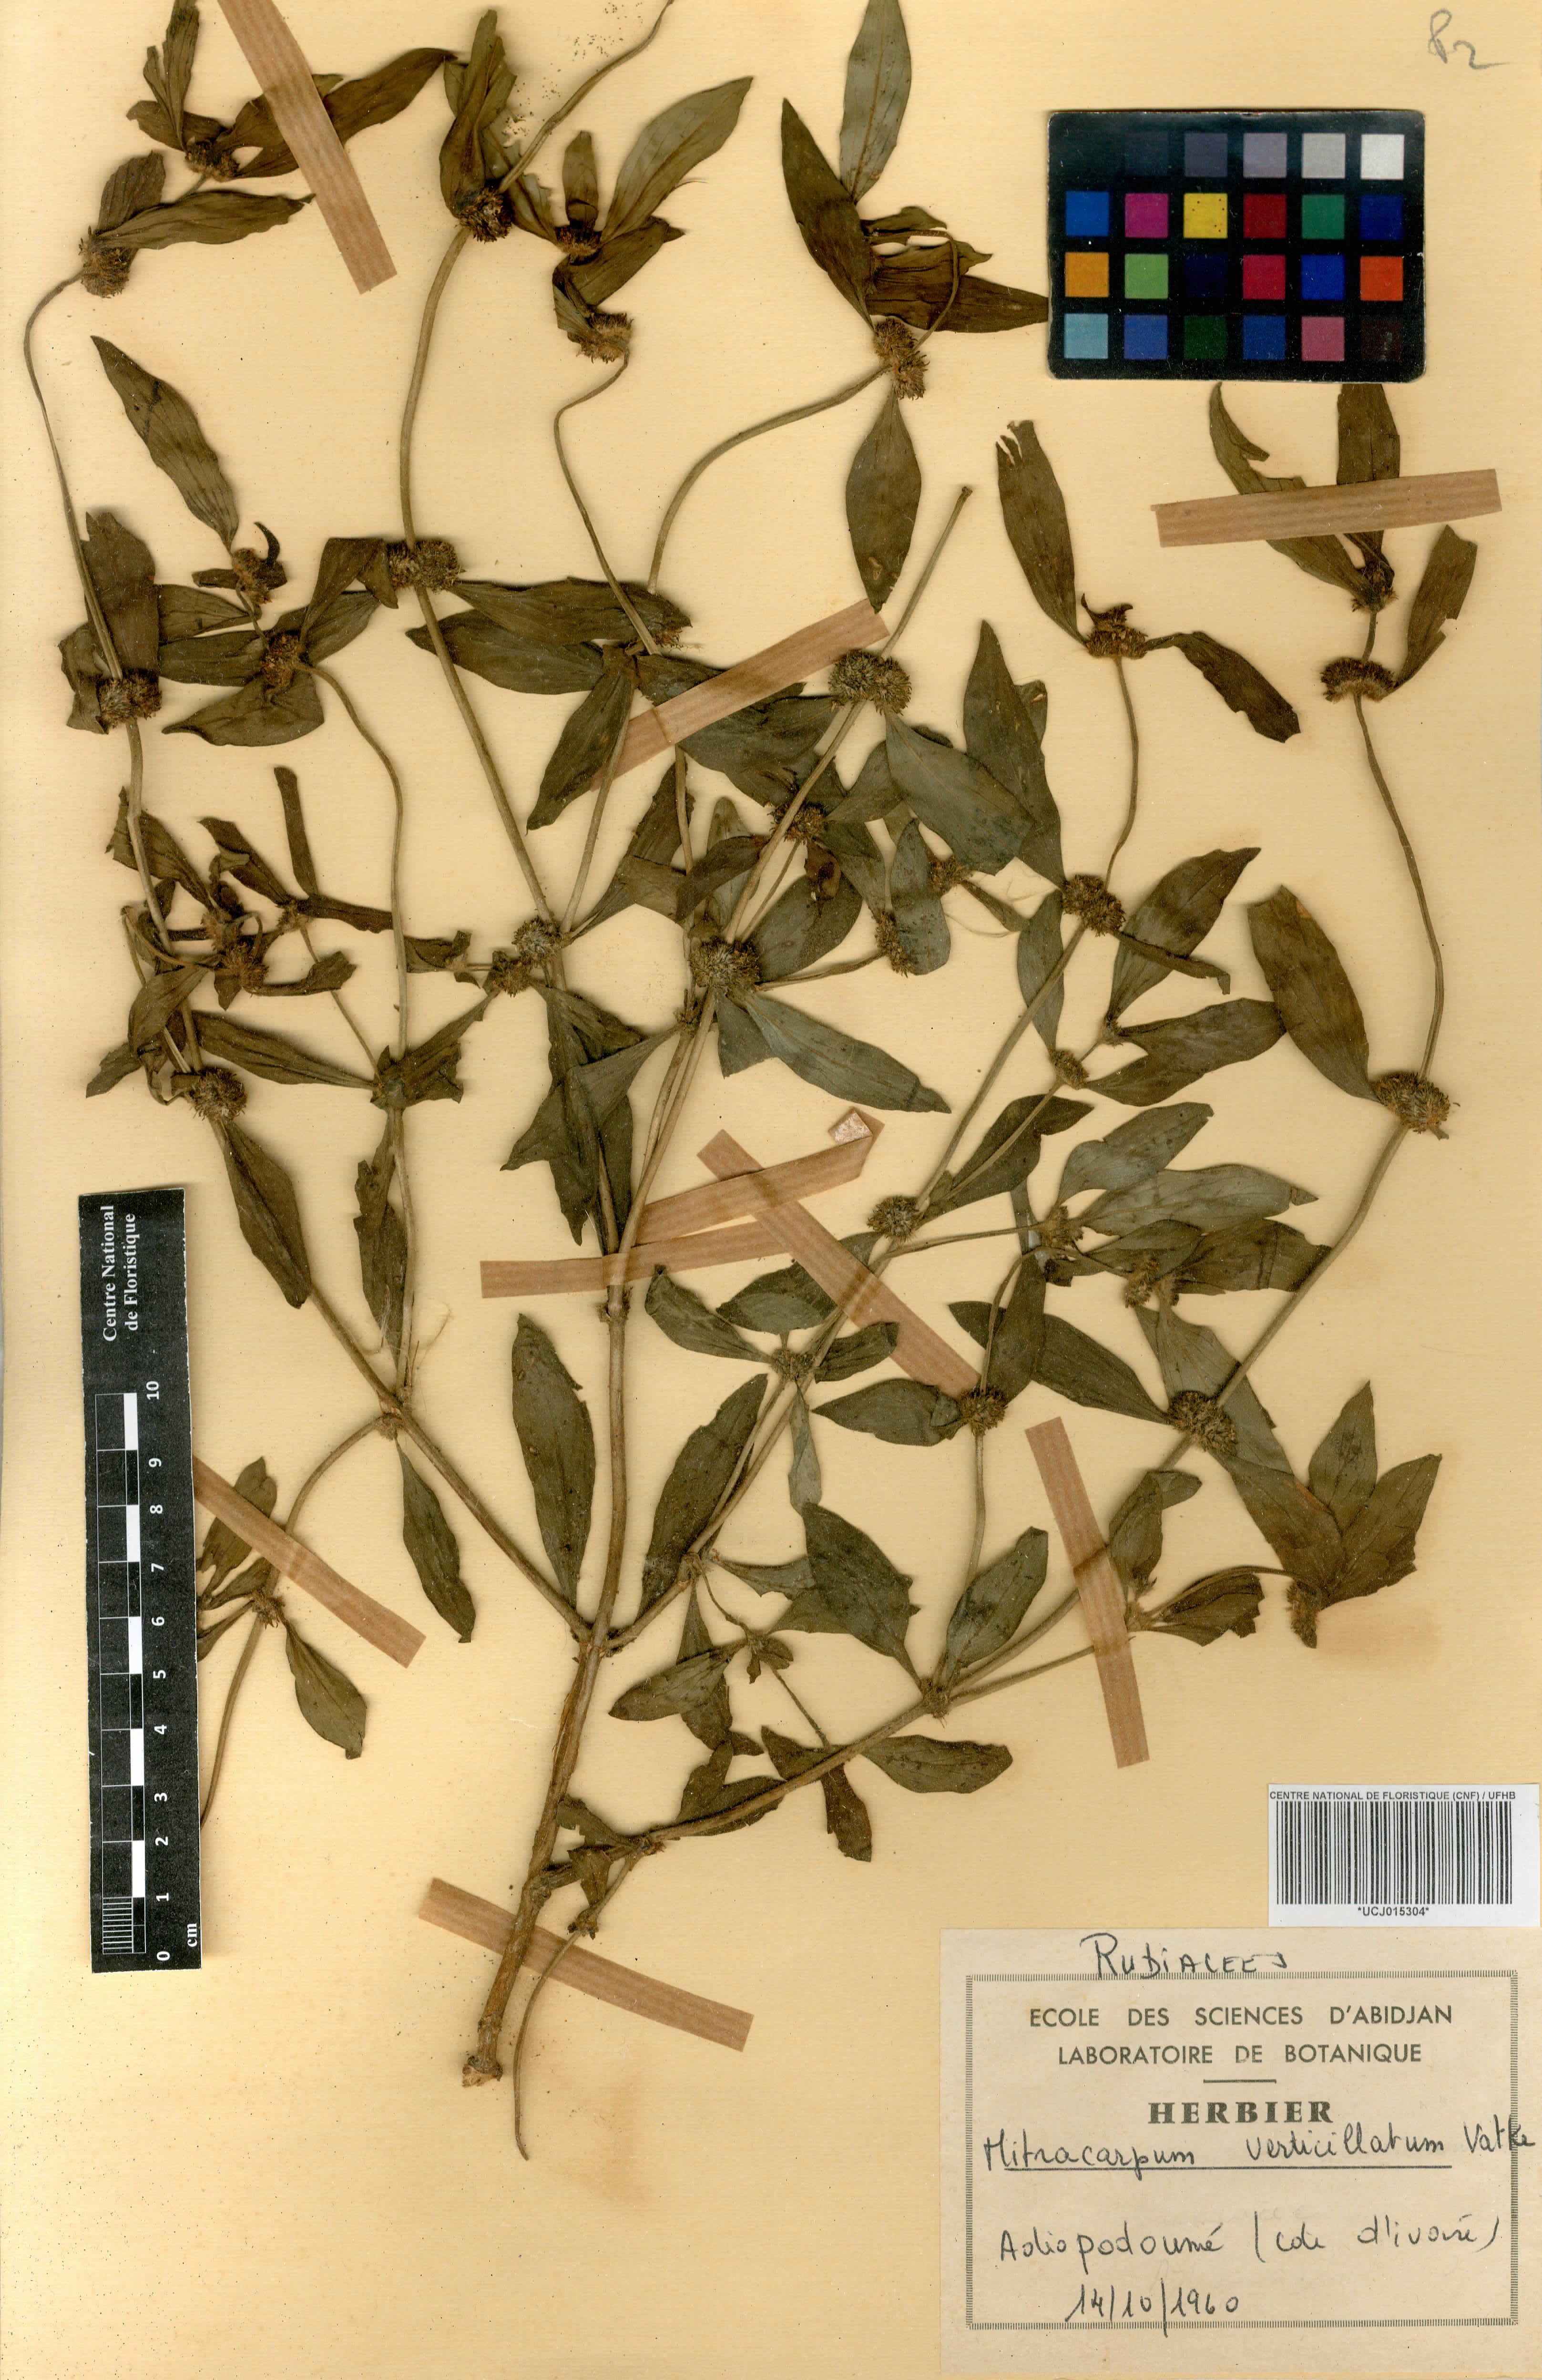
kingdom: Plantae
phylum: Tracheophyta
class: Magnoliopsida
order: Gentianales
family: Rubiaceae
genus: Mitracarpus
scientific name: Mitracarpus hirtus
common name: Tropical girdlepod
